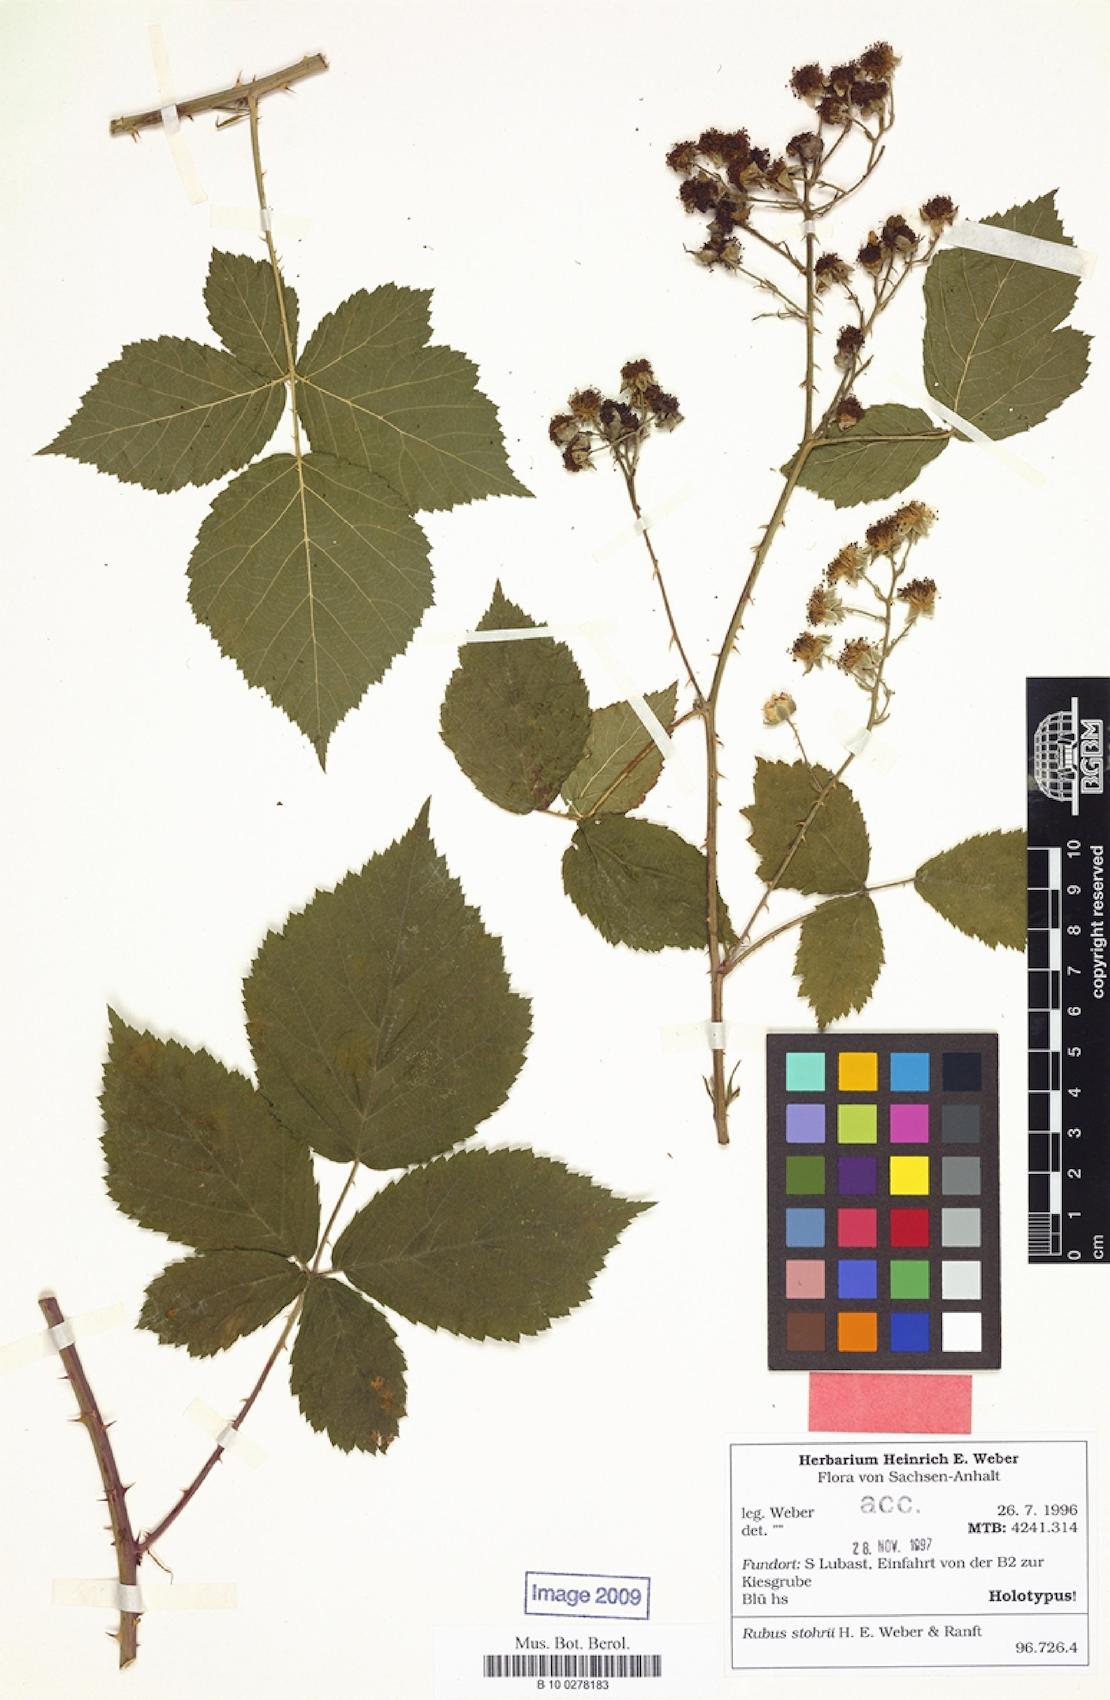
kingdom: Plantae
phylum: Tracheophyta
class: Magnoliopsida
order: Rosales
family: Rosaceae
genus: Rubus
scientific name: Rubus stohrii
